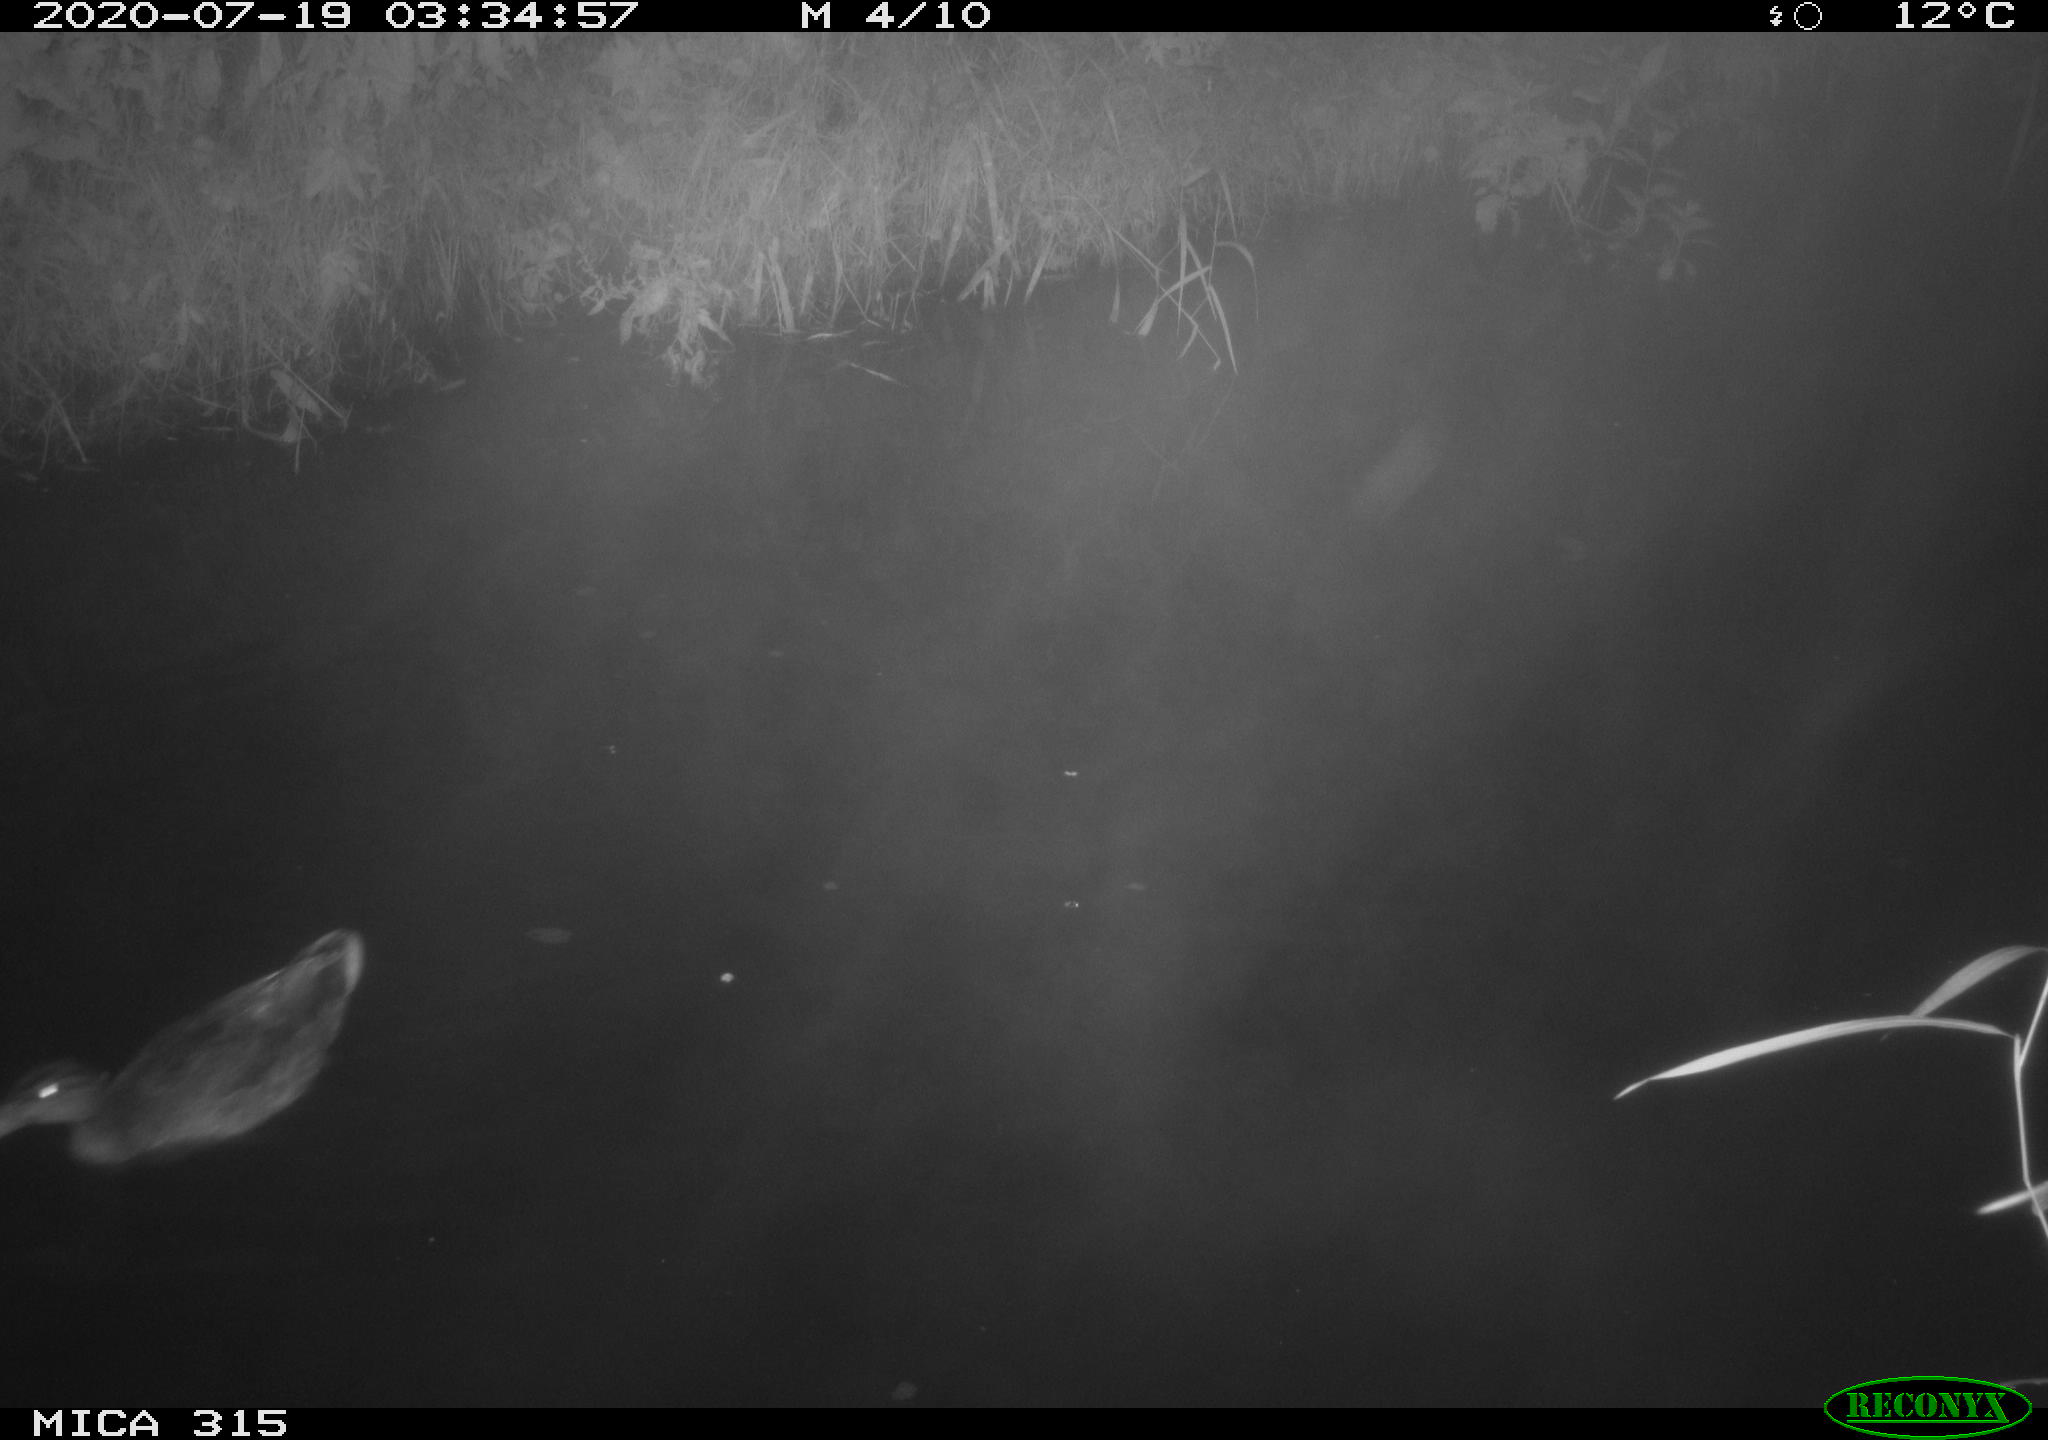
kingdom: Animalia
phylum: Chordata
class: Aves
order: Anseriformes
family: Anatidae
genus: Anas
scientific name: Anas platyrhynchos
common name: Mallard
